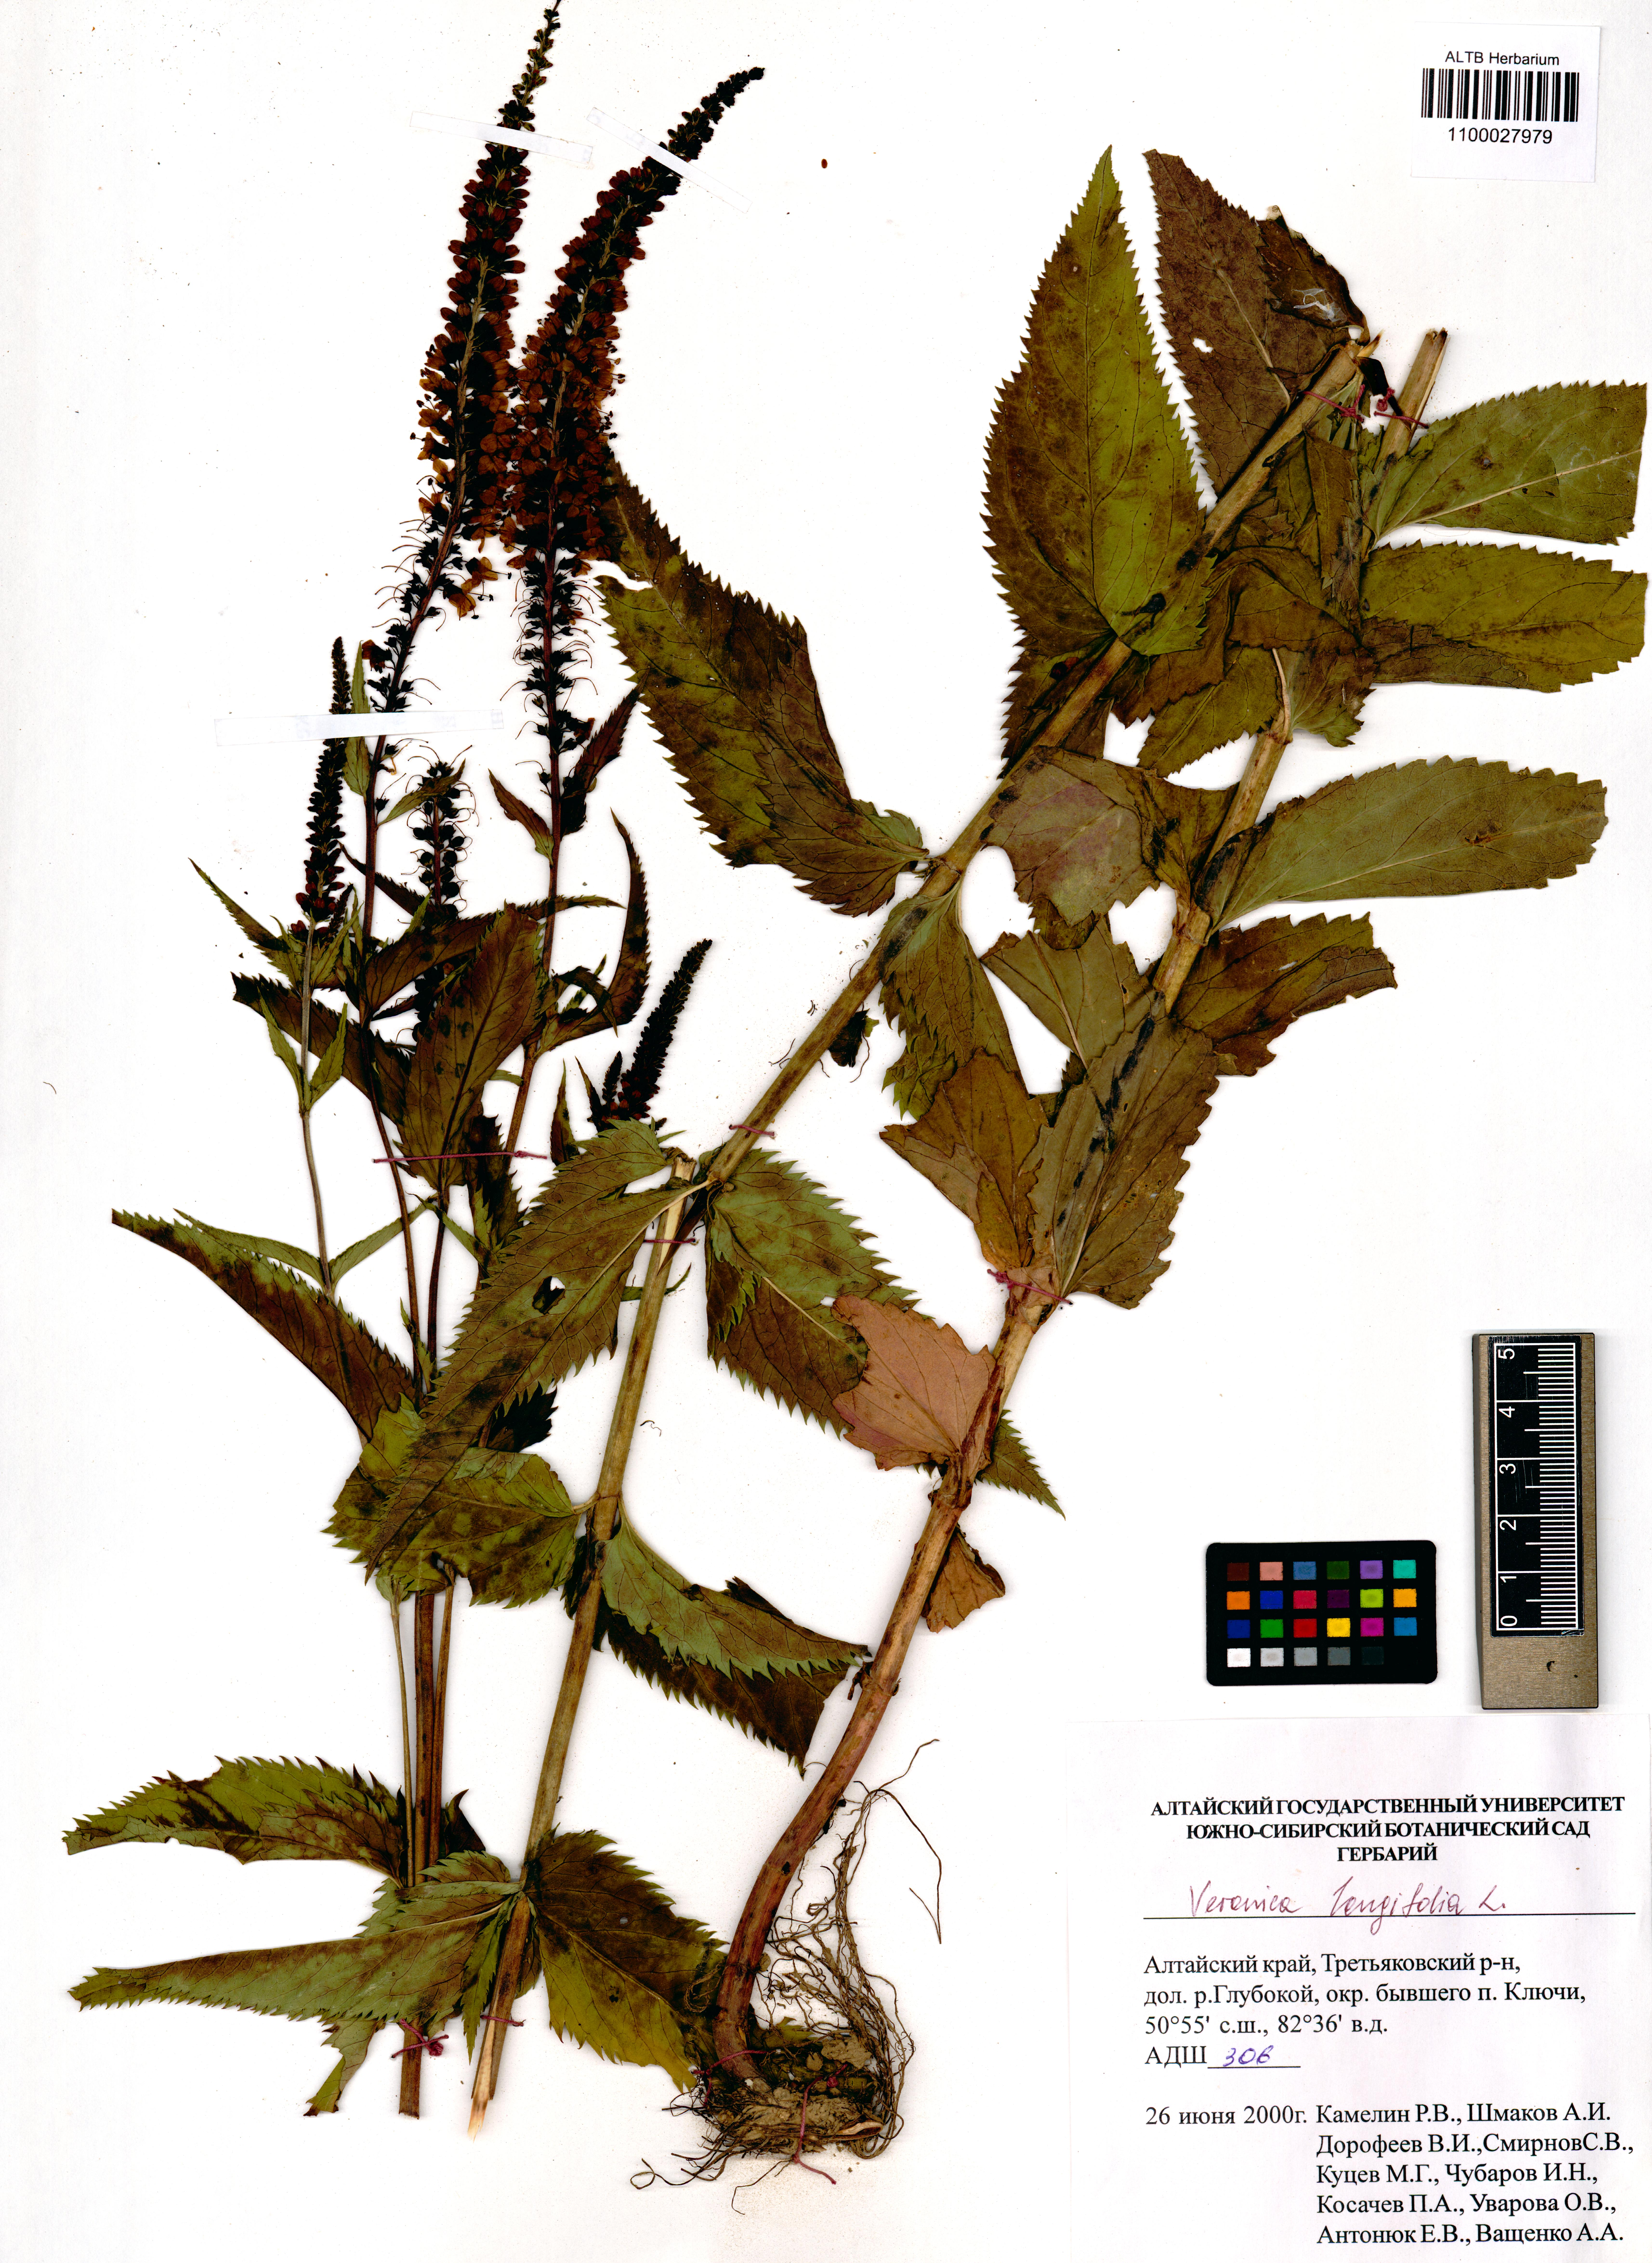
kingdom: Plantae
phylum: Tracheophyta
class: Magnoliopsida
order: Lamiales
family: Plantaginaceae
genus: Veronica
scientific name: Veronica longifolia
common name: Garden speedwell
